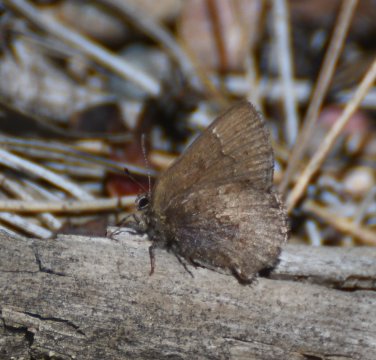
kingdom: Animalia
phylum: Arthropoda
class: Insecta
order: Lepidoptera
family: Lycaenidae
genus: Callophrys
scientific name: Callophrys polios
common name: Hoary Elfin
